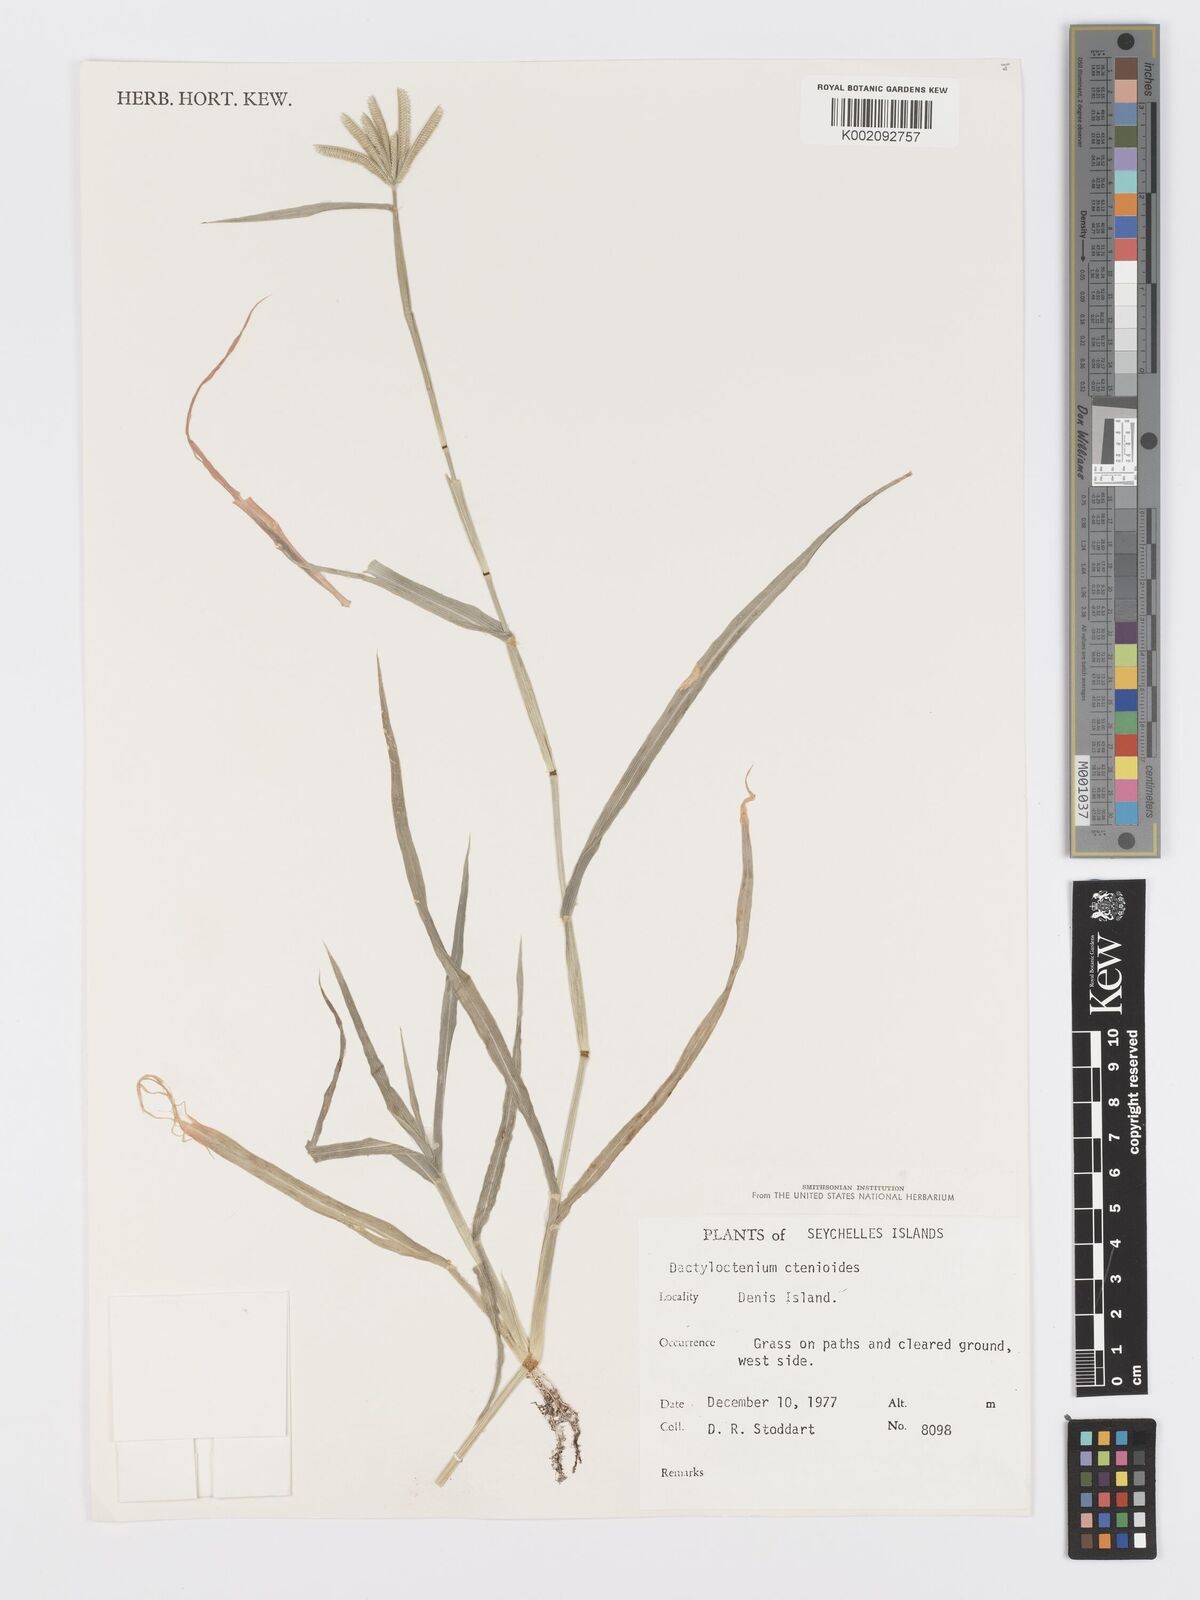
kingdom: Plantae
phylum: Tracheophyta
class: Liliopsida
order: Poales
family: Poaceae
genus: Dactyloctenium
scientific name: Dactyloctenium ctenoides
